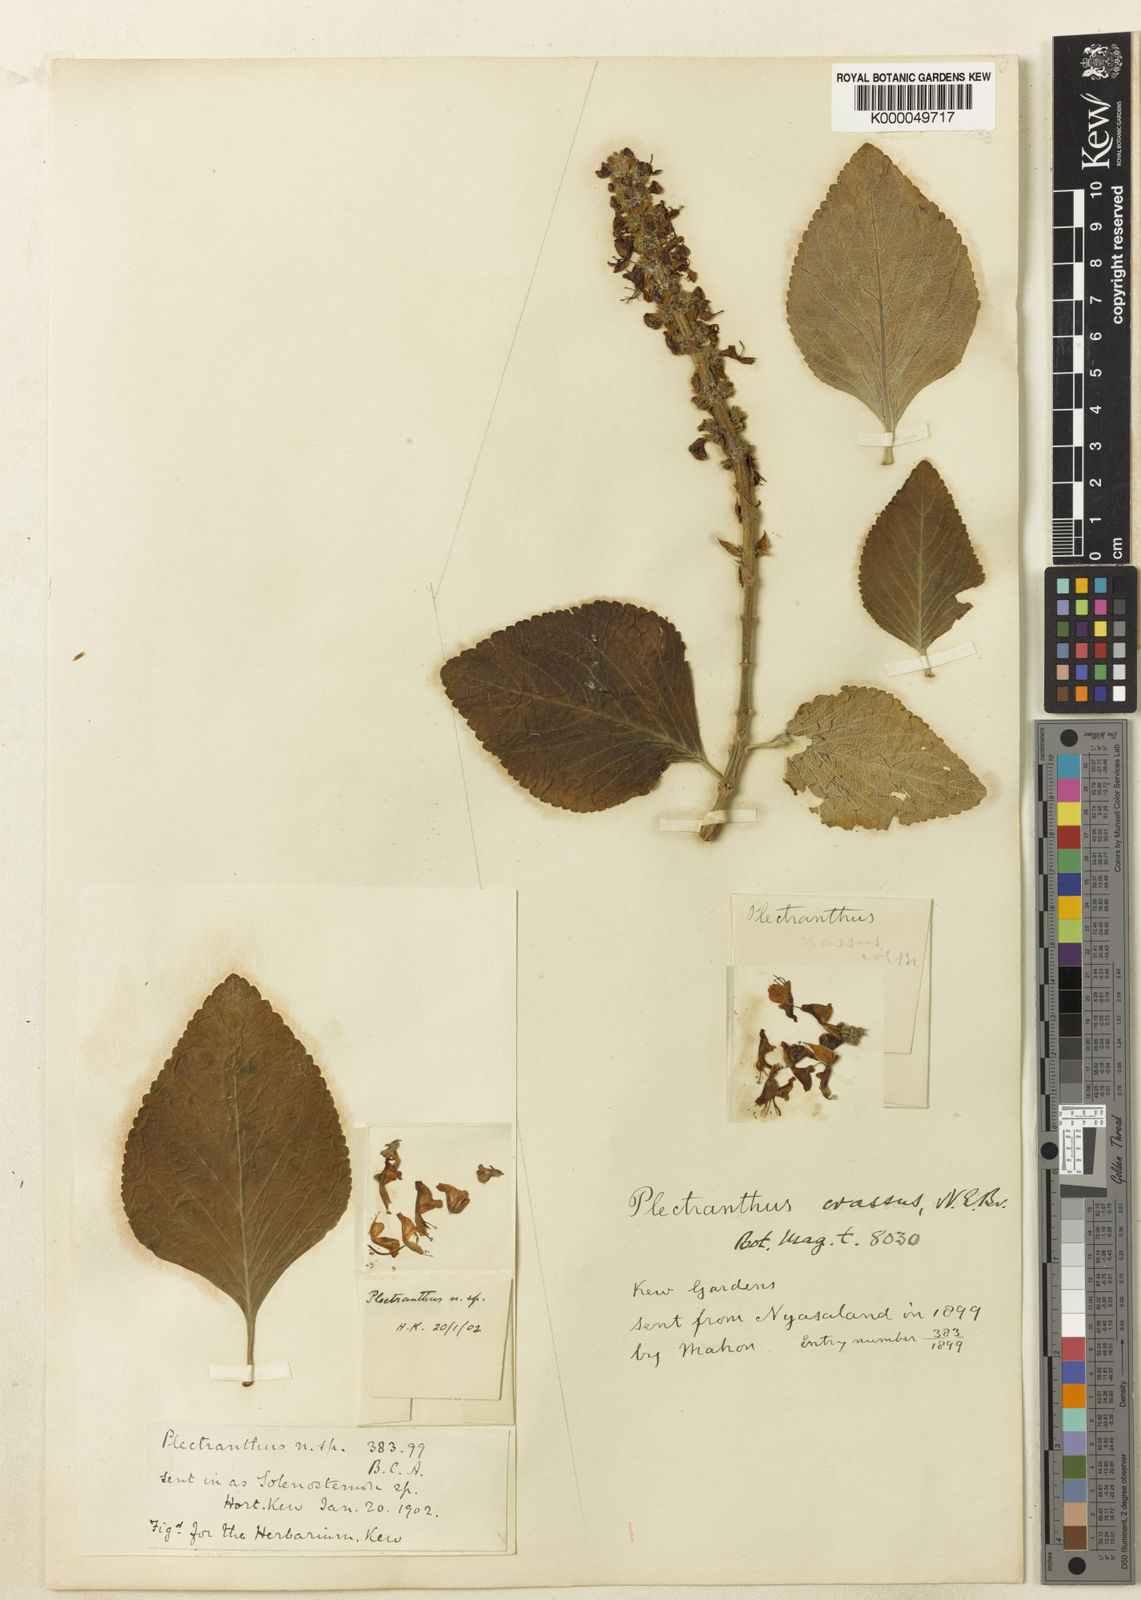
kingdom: Plantae
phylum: Tracheophyta
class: Magnoliopsida
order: Lamiales
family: Lamiaceae
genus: Coleus
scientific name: Coleus crassus
